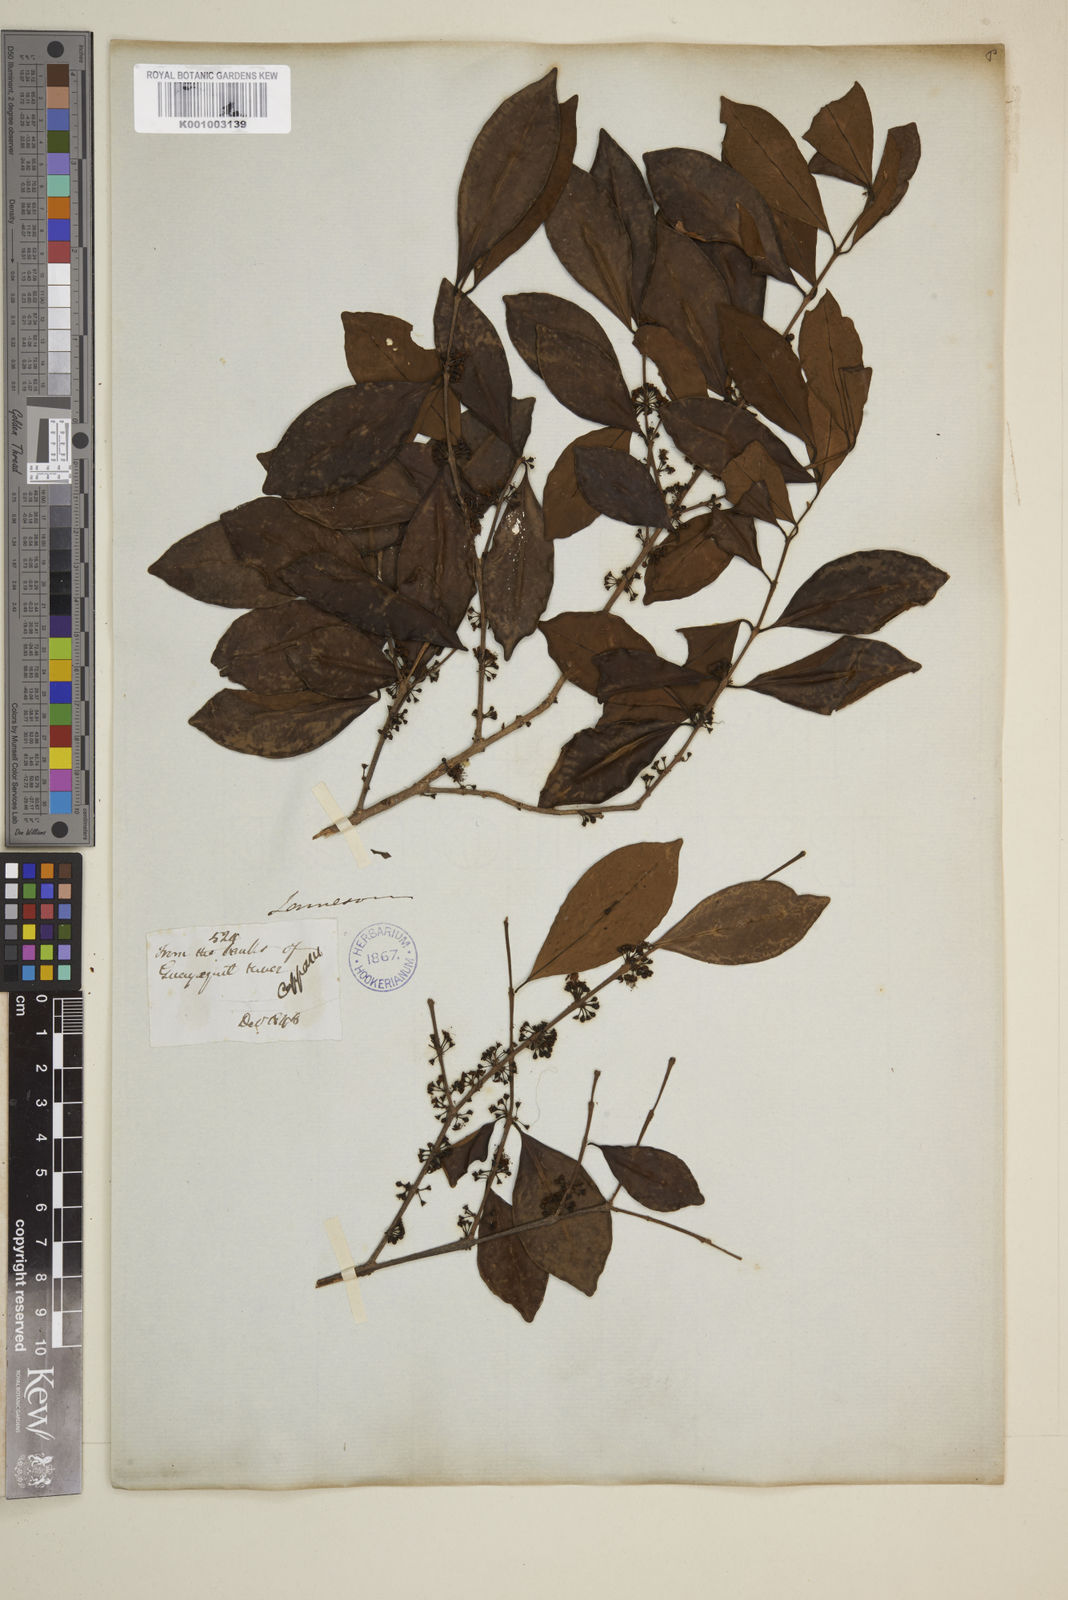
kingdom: Plantae
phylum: Tracheophyta
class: Magnoliopsida
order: Myrtales
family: Myrtaceae
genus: Eugenia
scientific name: Eugenia
